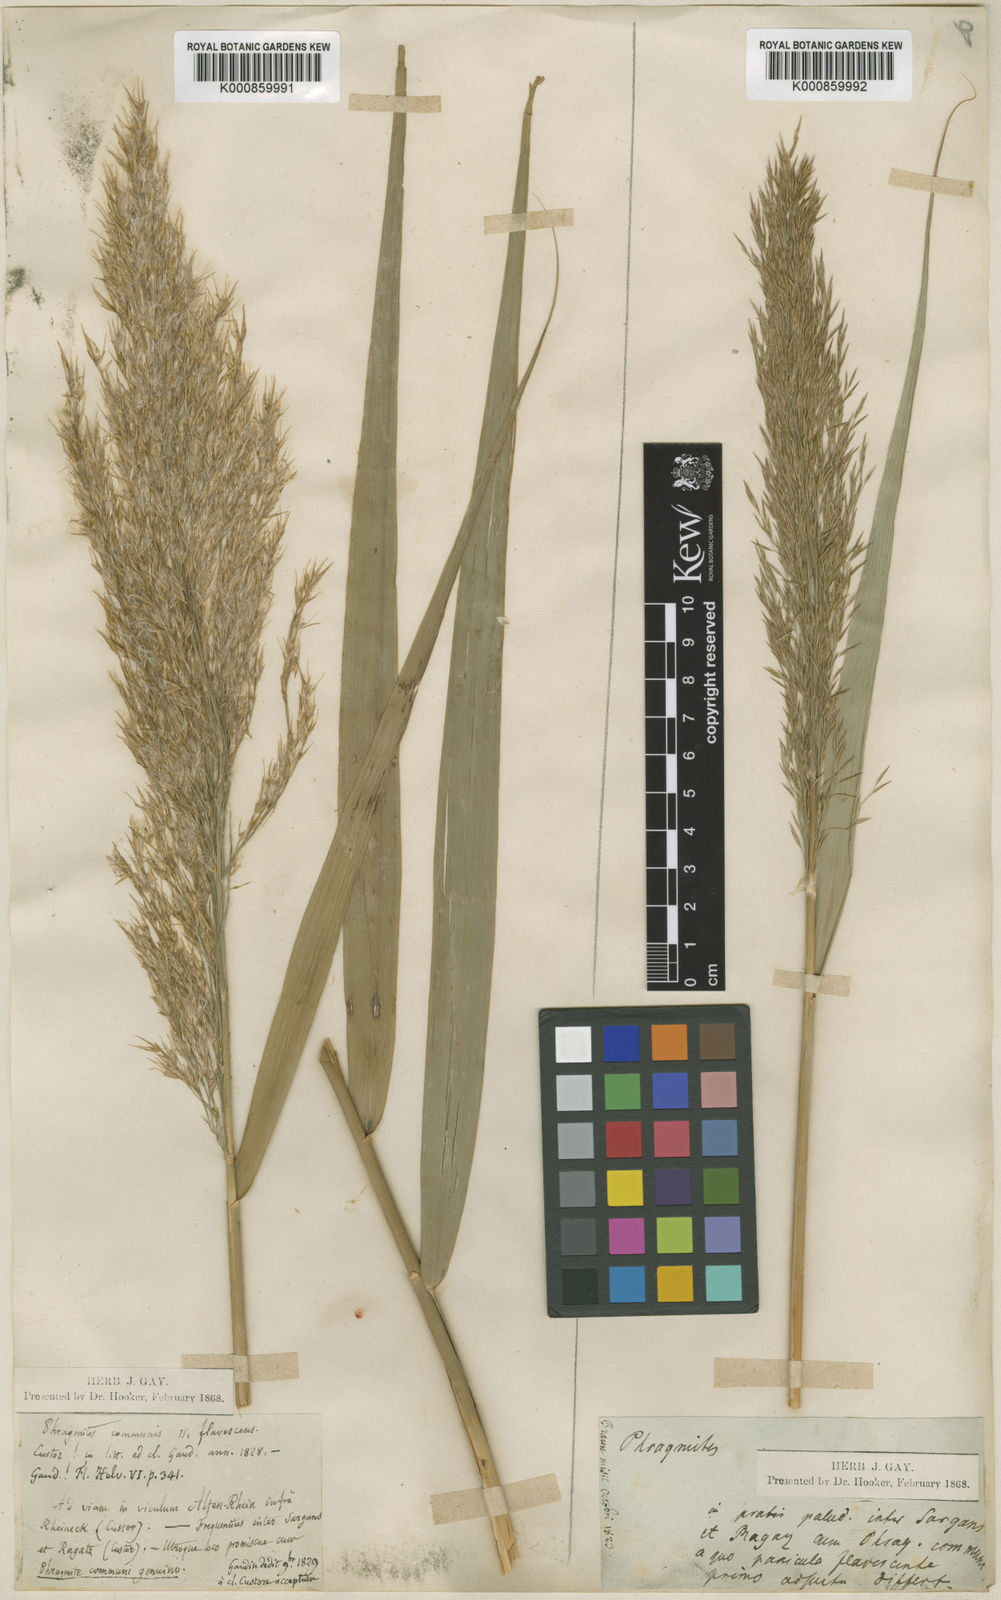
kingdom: Plantae
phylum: Tracheophyta
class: Liliopsida
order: Poales
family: Poaceae
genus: Phragmites
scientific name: Phragmites australis
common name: Common reed
